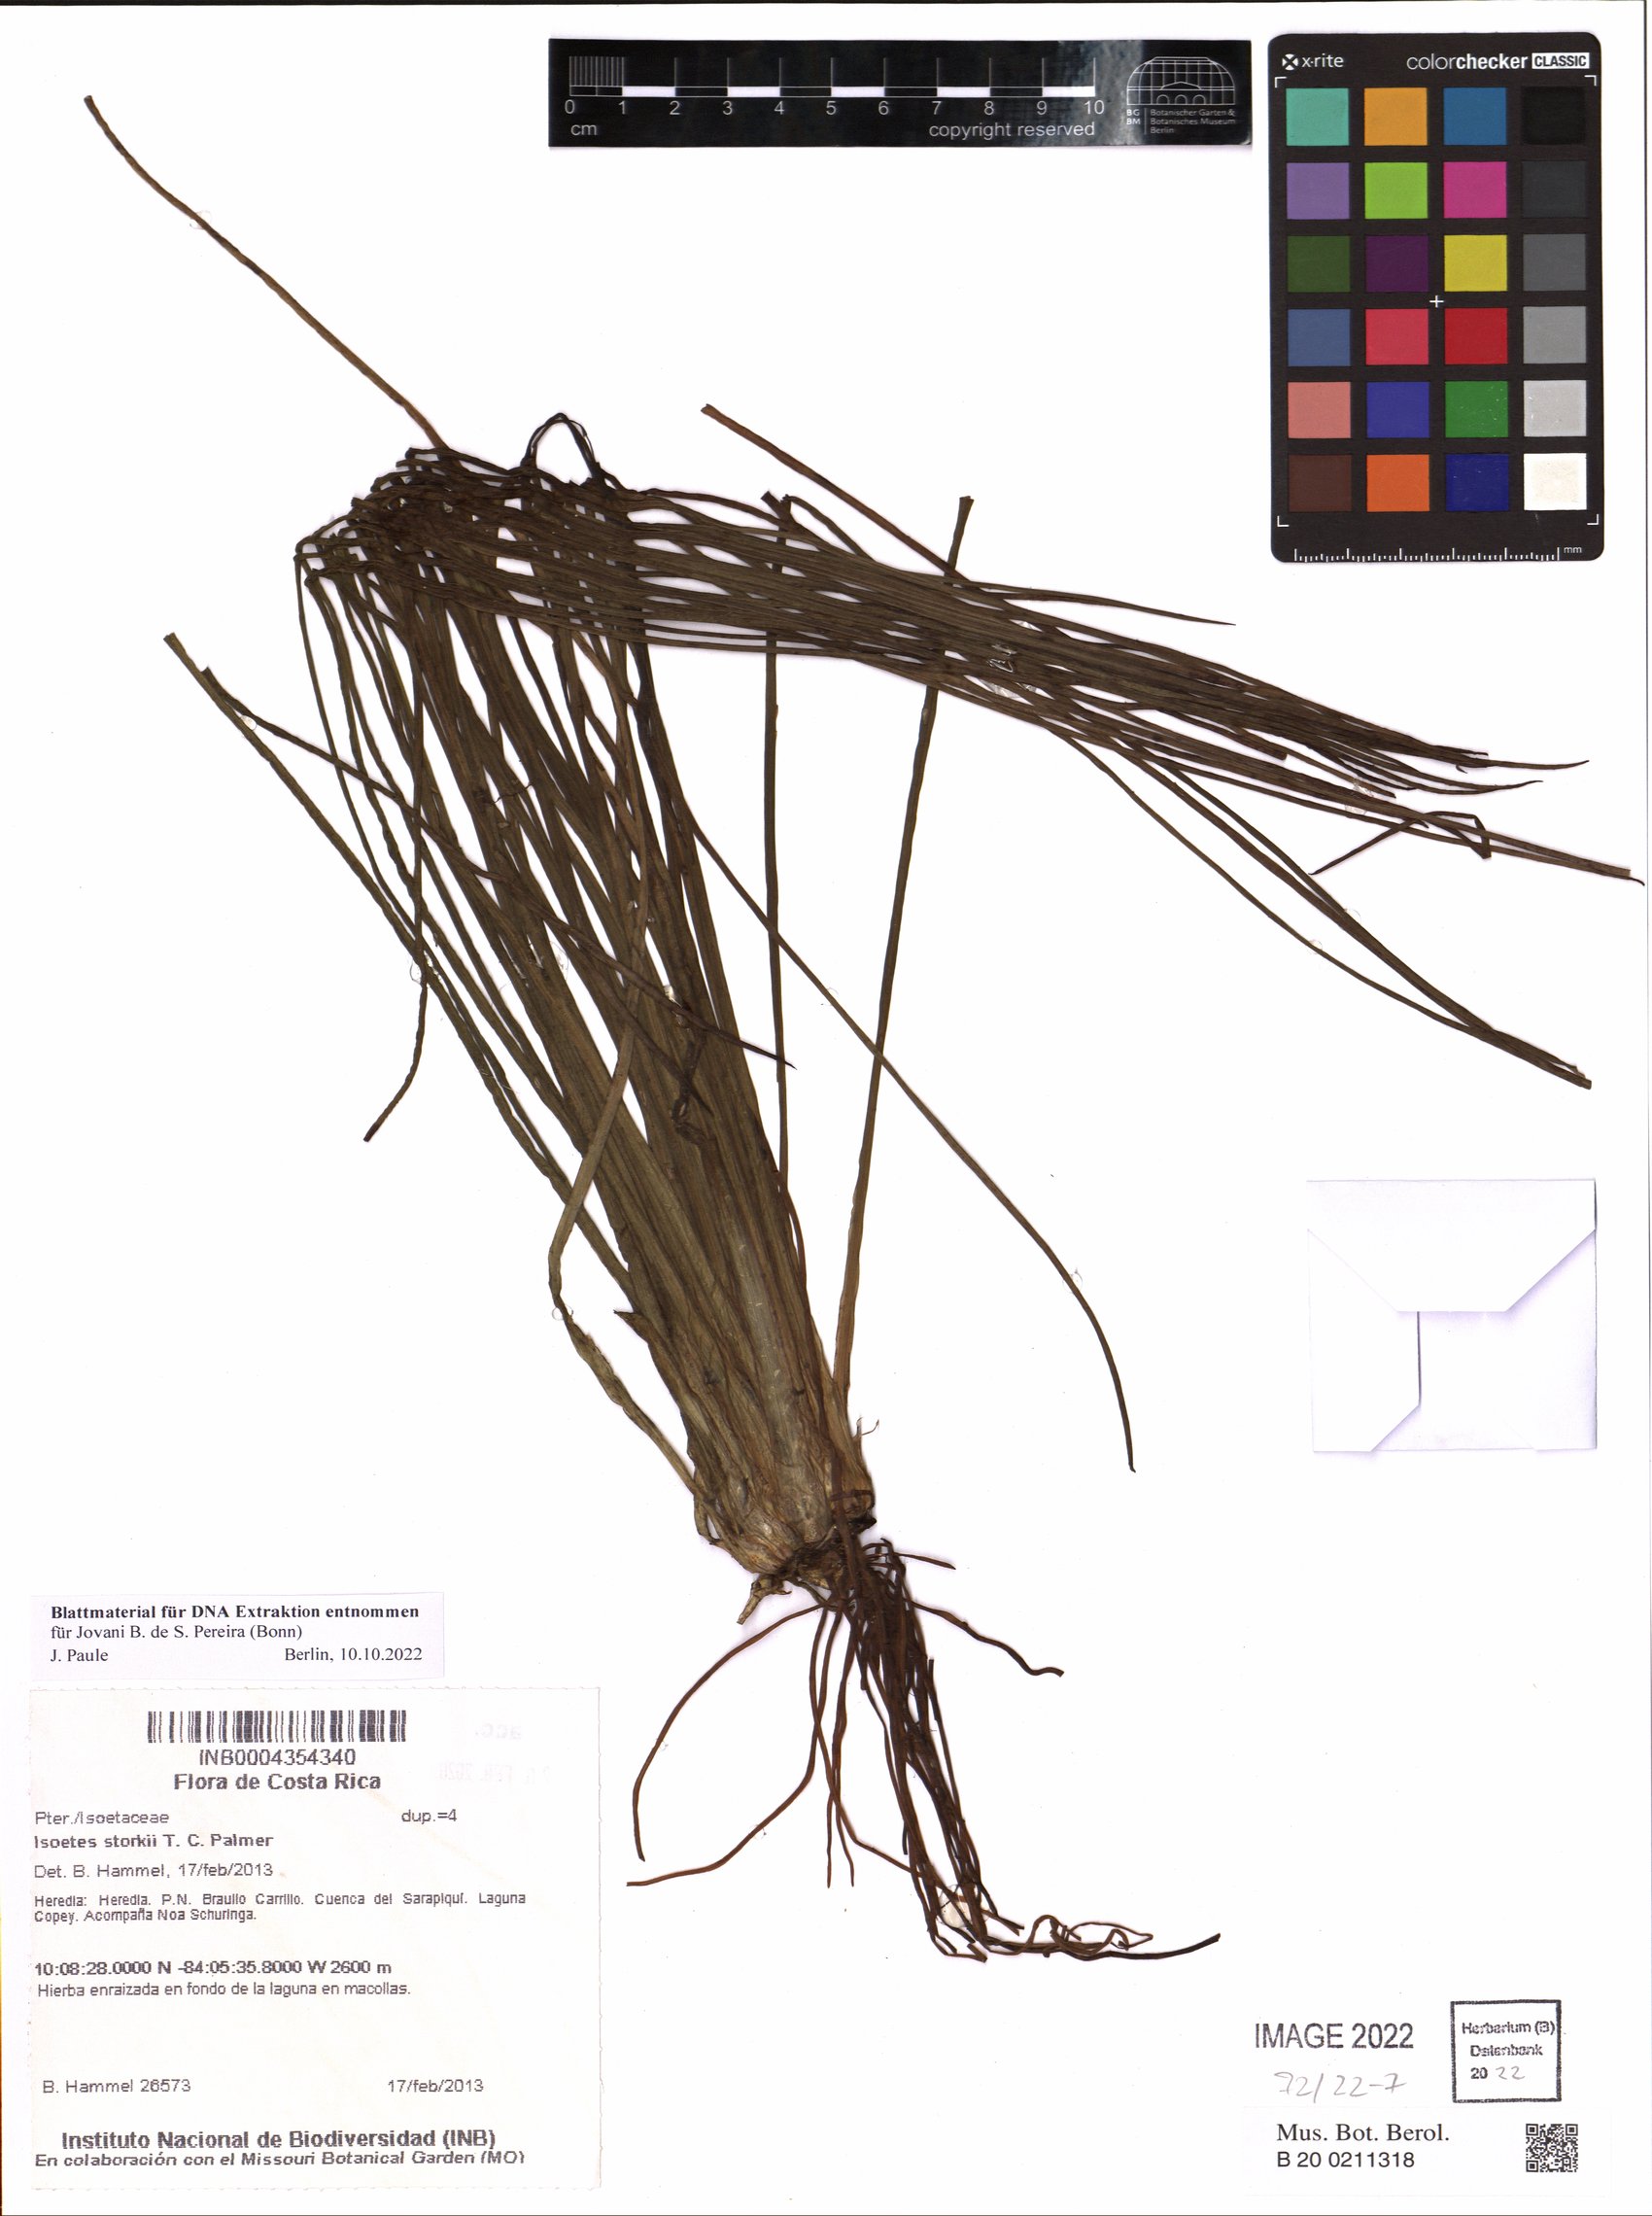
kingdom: Plantae
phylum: Tracheophyta
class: Lycopodiopsida
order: Isoetales
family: Isoetaceae
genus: Isoetes
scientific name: Isoetes storkii
